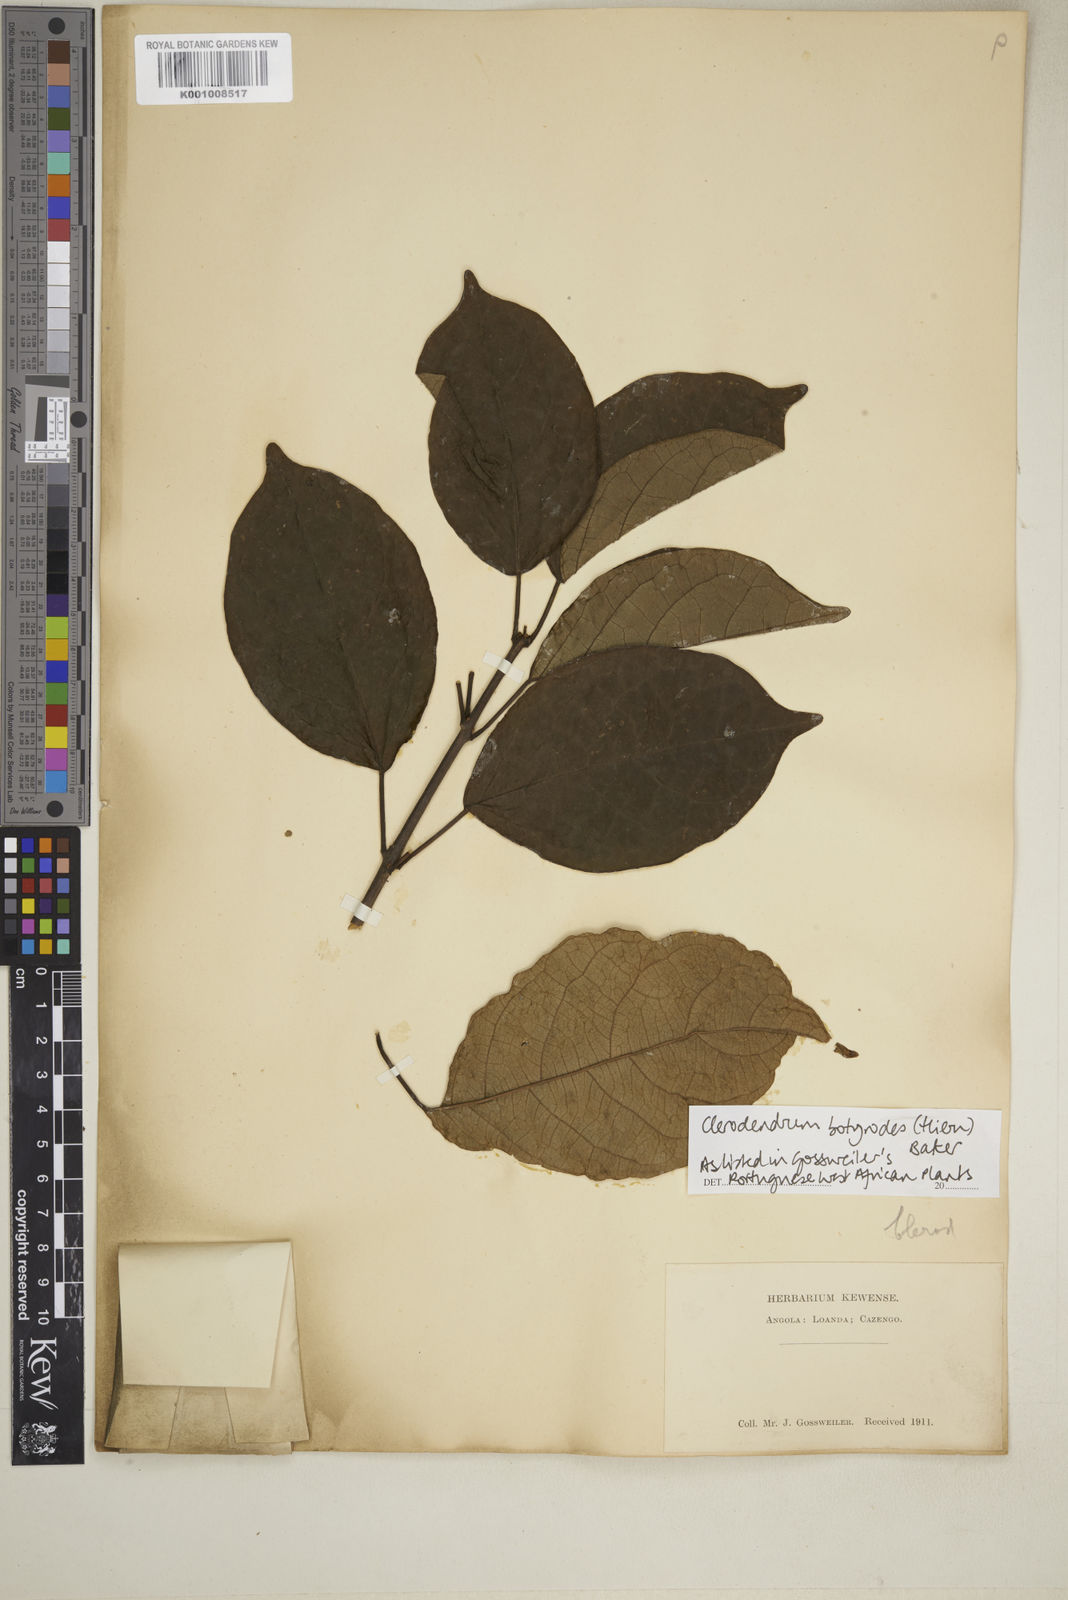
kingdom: Plantae
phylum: Tracheophyta
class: Magnoliopsida
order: Lamiales
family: Lamiaceae
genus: Clerodendrum
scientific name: Clerodendrum silvanum
